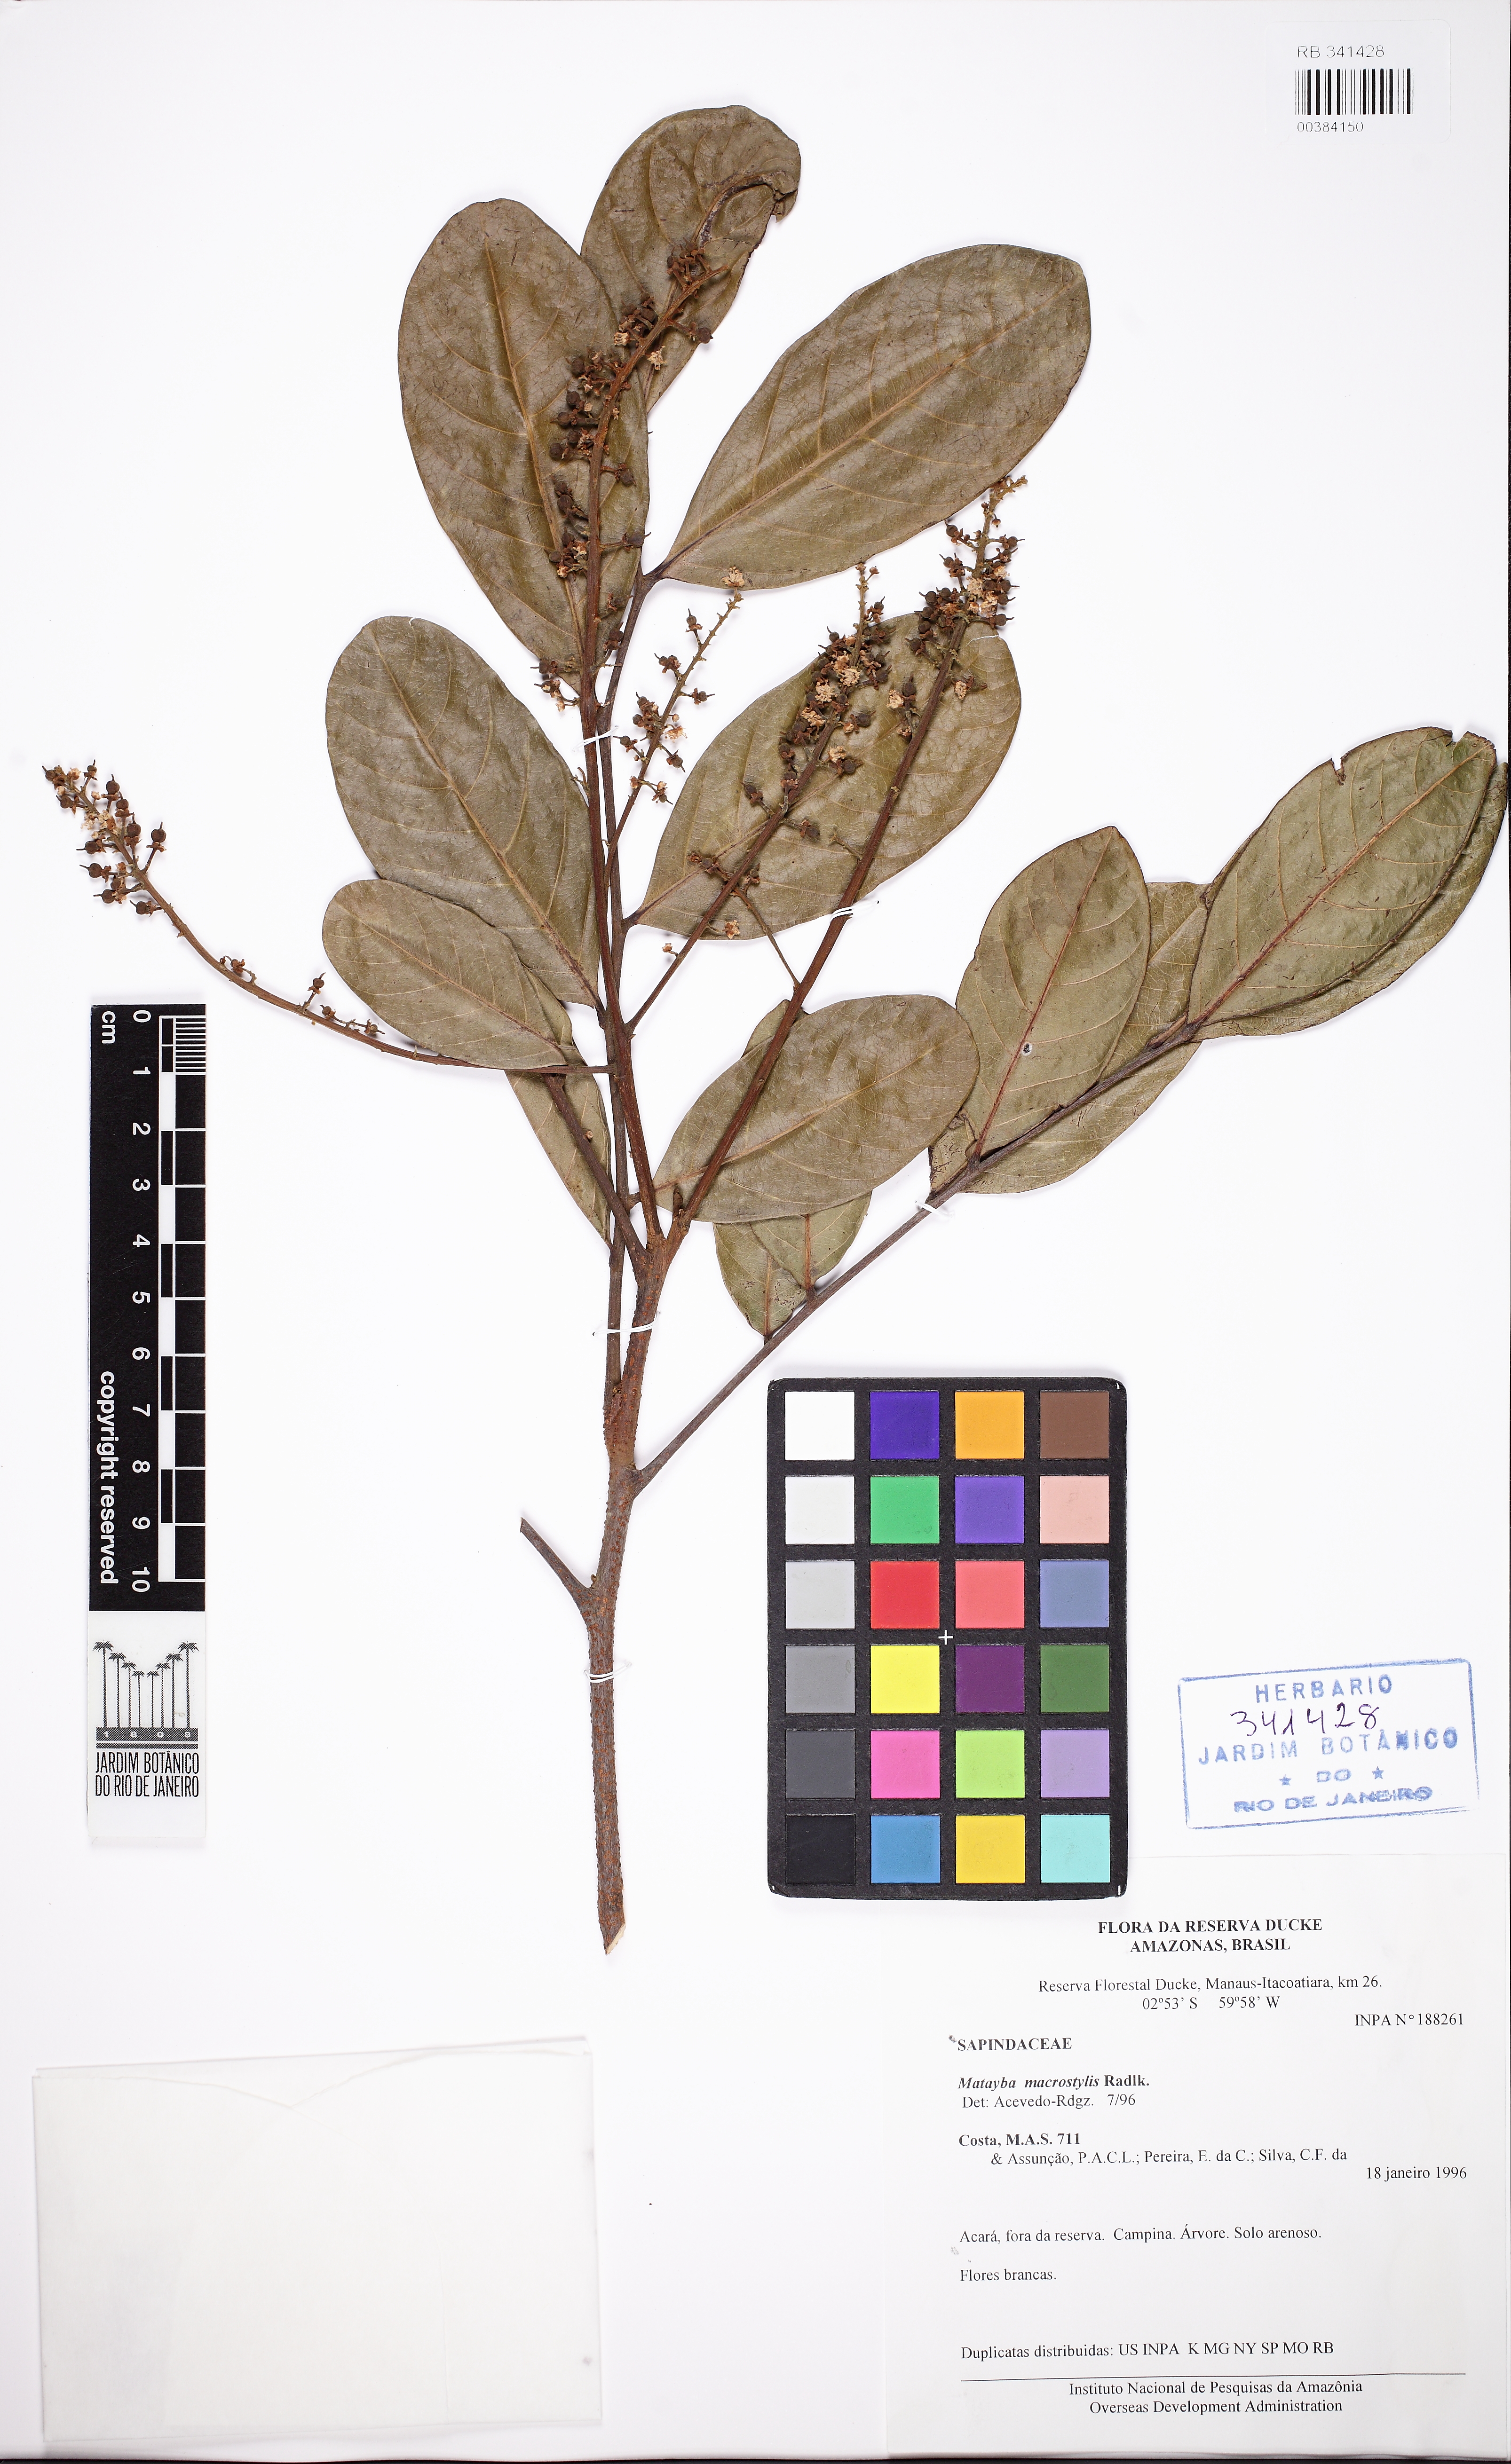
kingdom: Plantae
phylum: Tracheophyta
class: Magnoliopsida
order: Sapindales
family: Sapindaceae
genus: Cupania
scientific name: Cupania macrostylis
